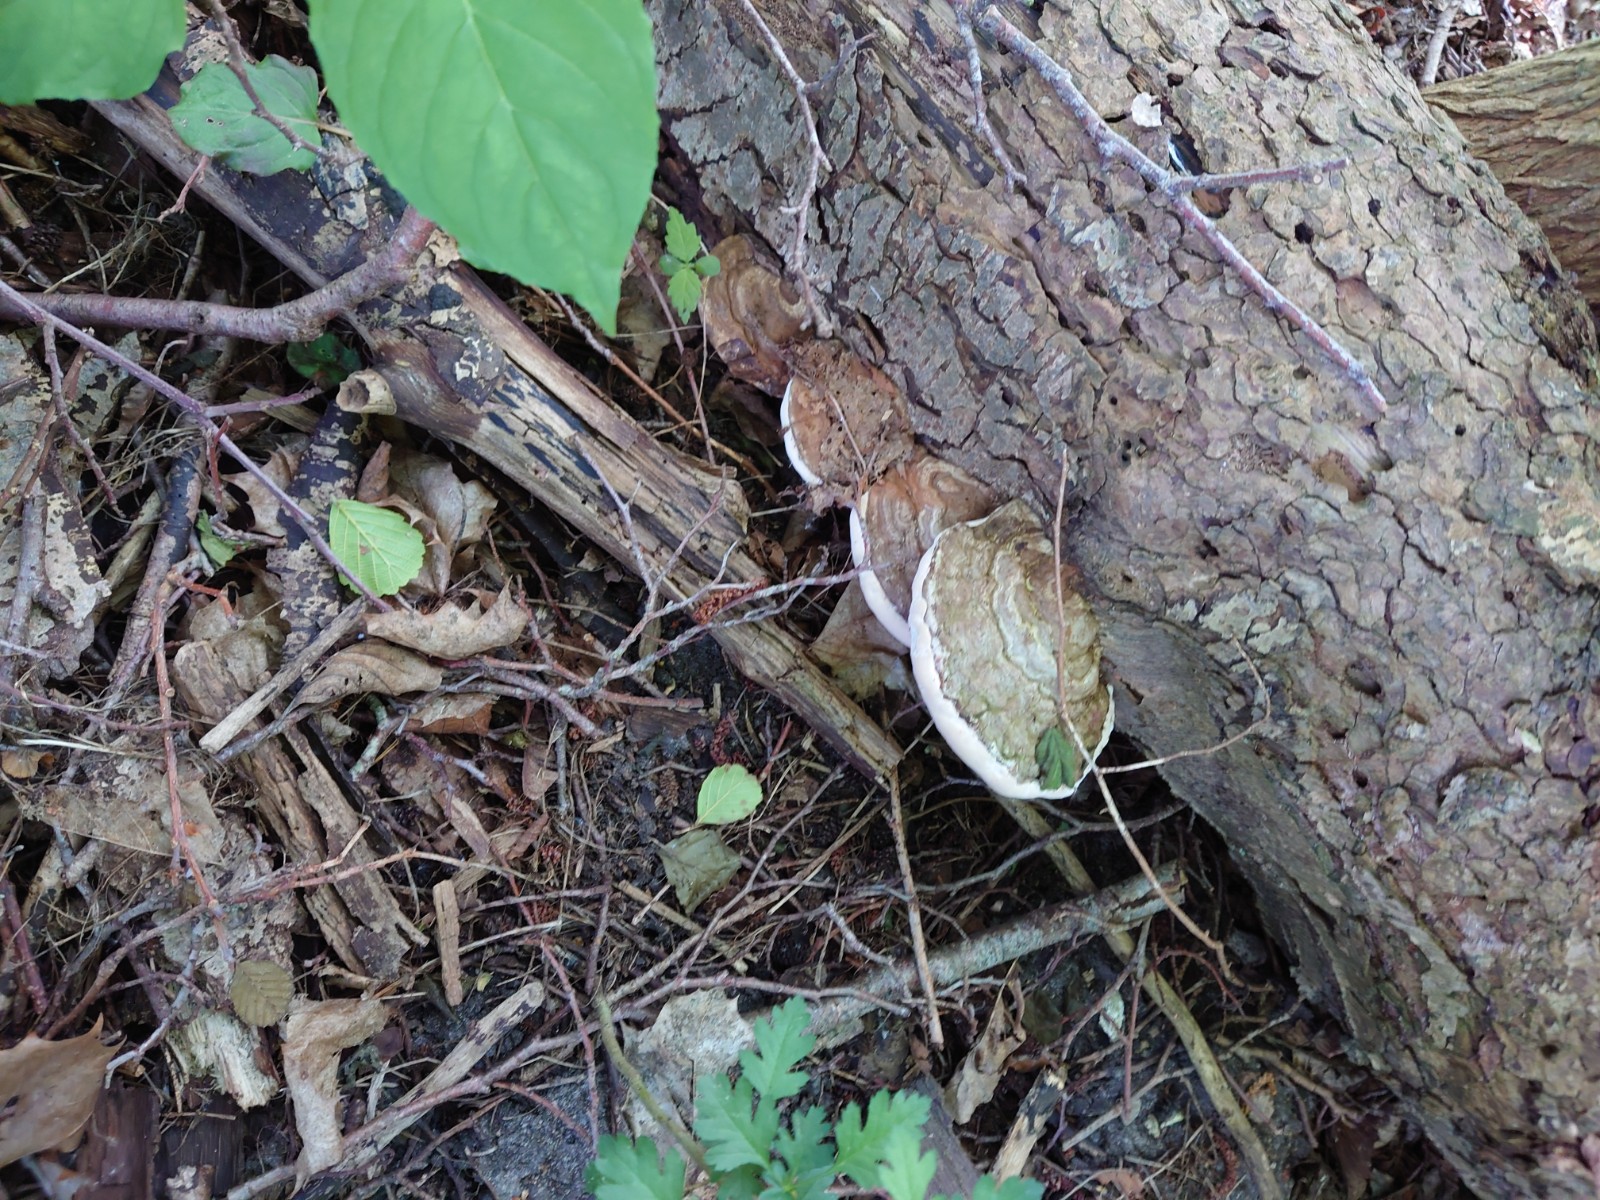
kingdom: Fungi
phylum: Basidiomycota
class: Agaricomycetes
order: Polyporales
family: Polyporaceae
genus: Ganoderma
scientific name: Ganoderma applanatum
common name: flad lakporesvamp
